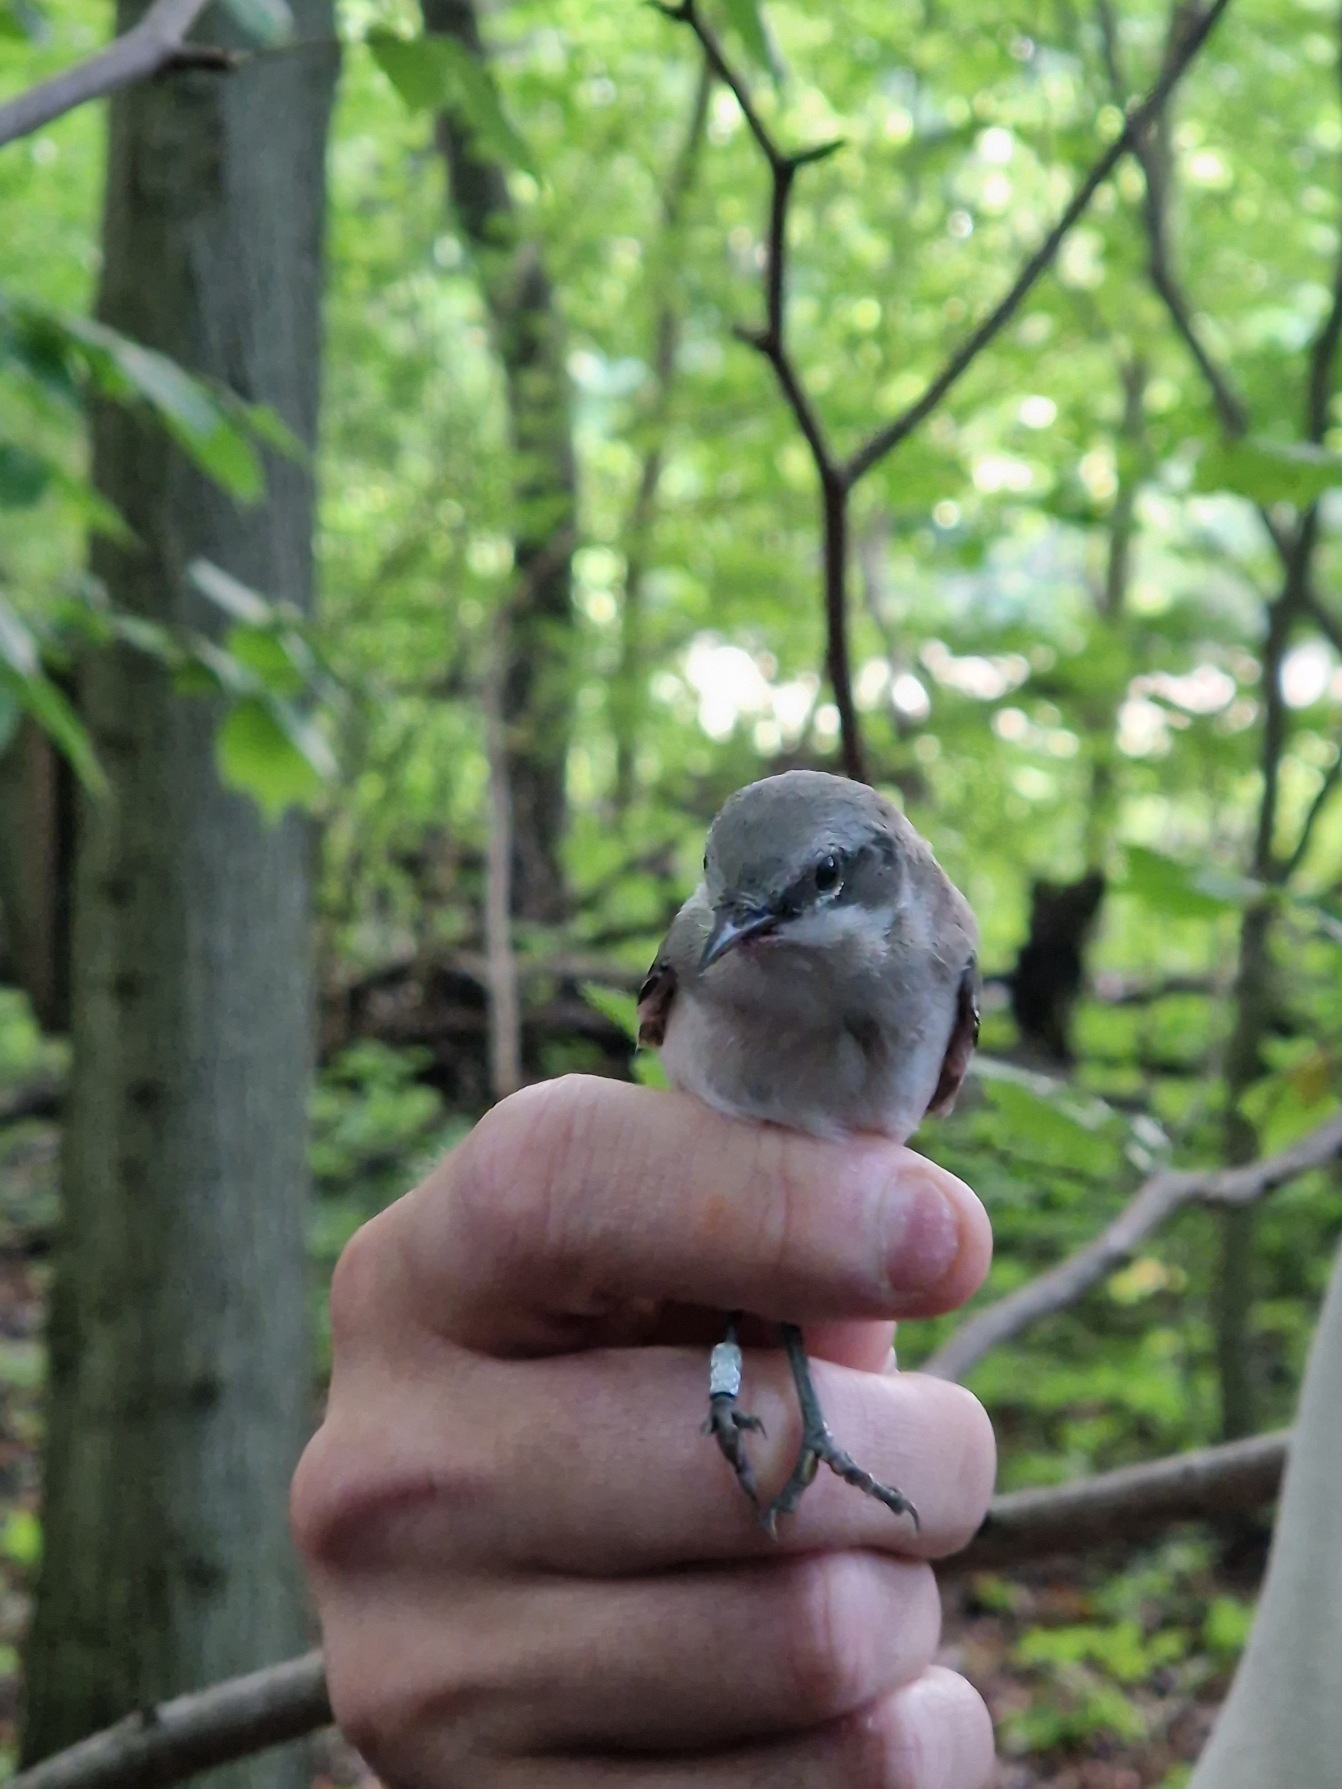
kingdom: Animalia
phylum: Chordata
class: Aves
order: Passeriformes
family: Sylviidae
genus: Sylvia
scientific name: Sylvia curruca
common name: Gærdesanger
